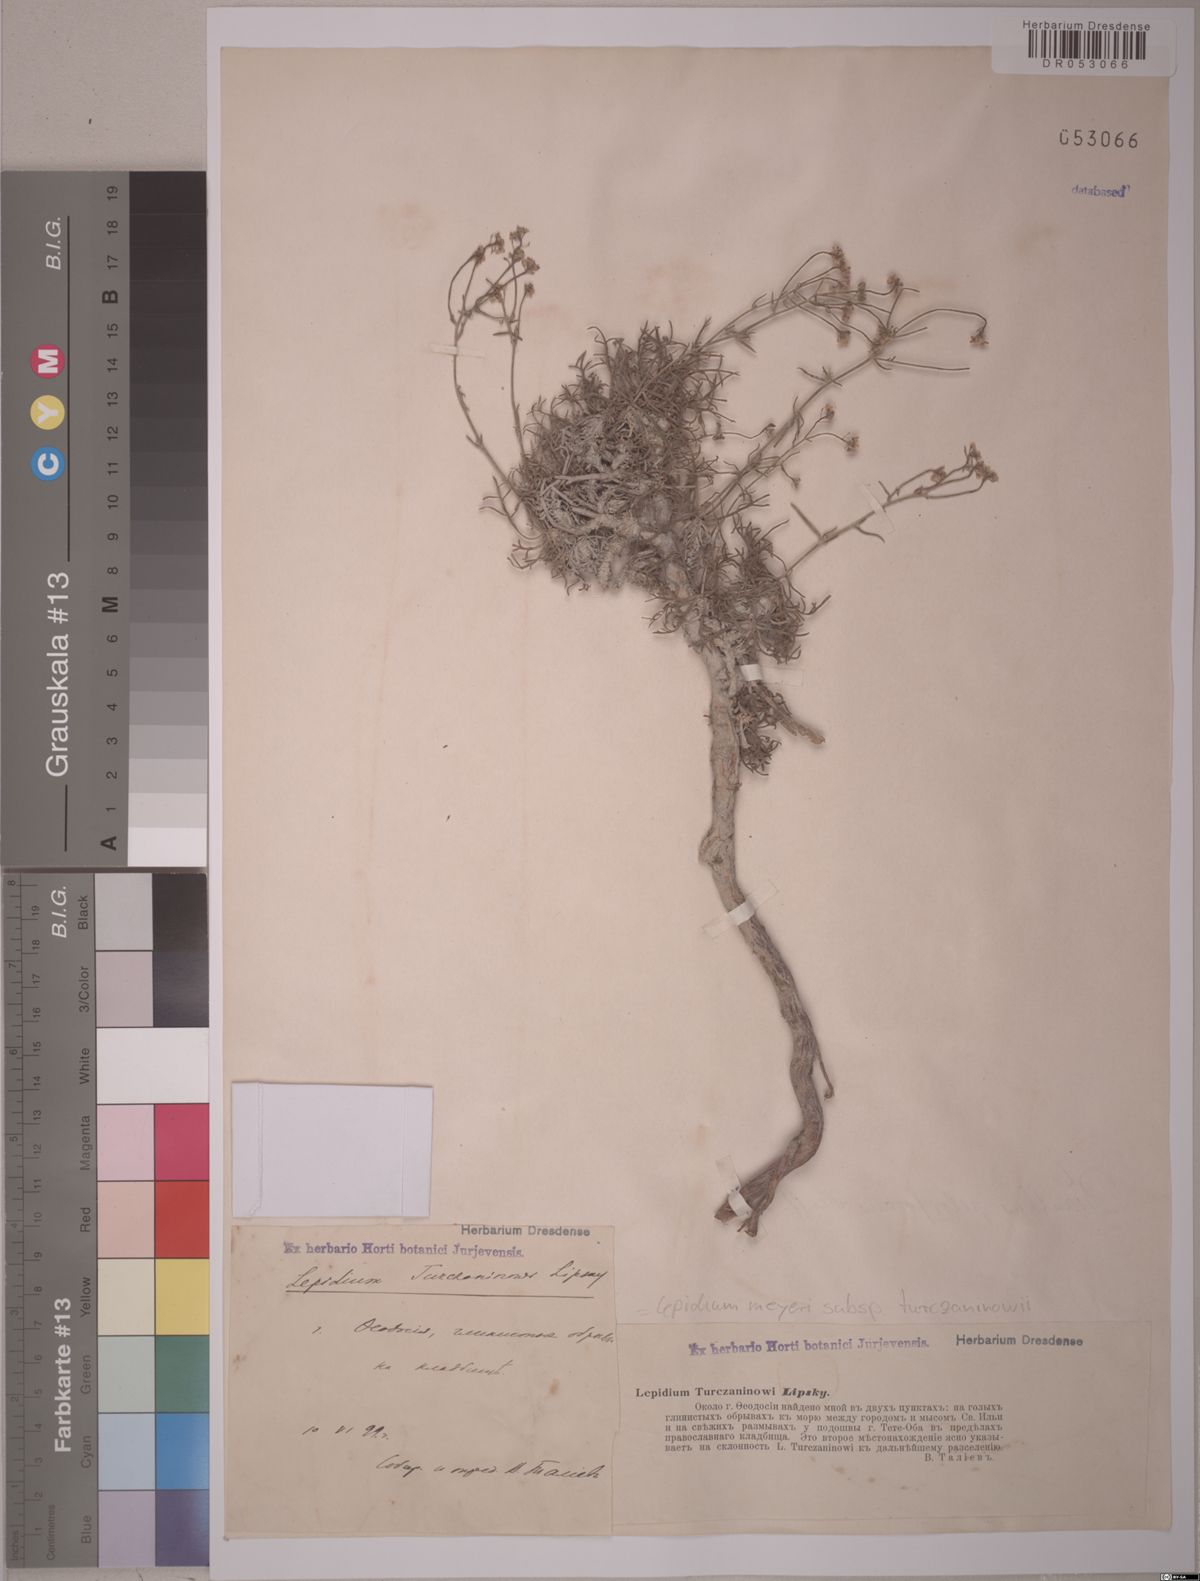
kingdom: Plantae
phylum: Tracheophyta
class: Magnoliopsida
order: Brassicales
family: Brassicaceae
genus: Lepidium
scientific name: Lepidium meyeri
